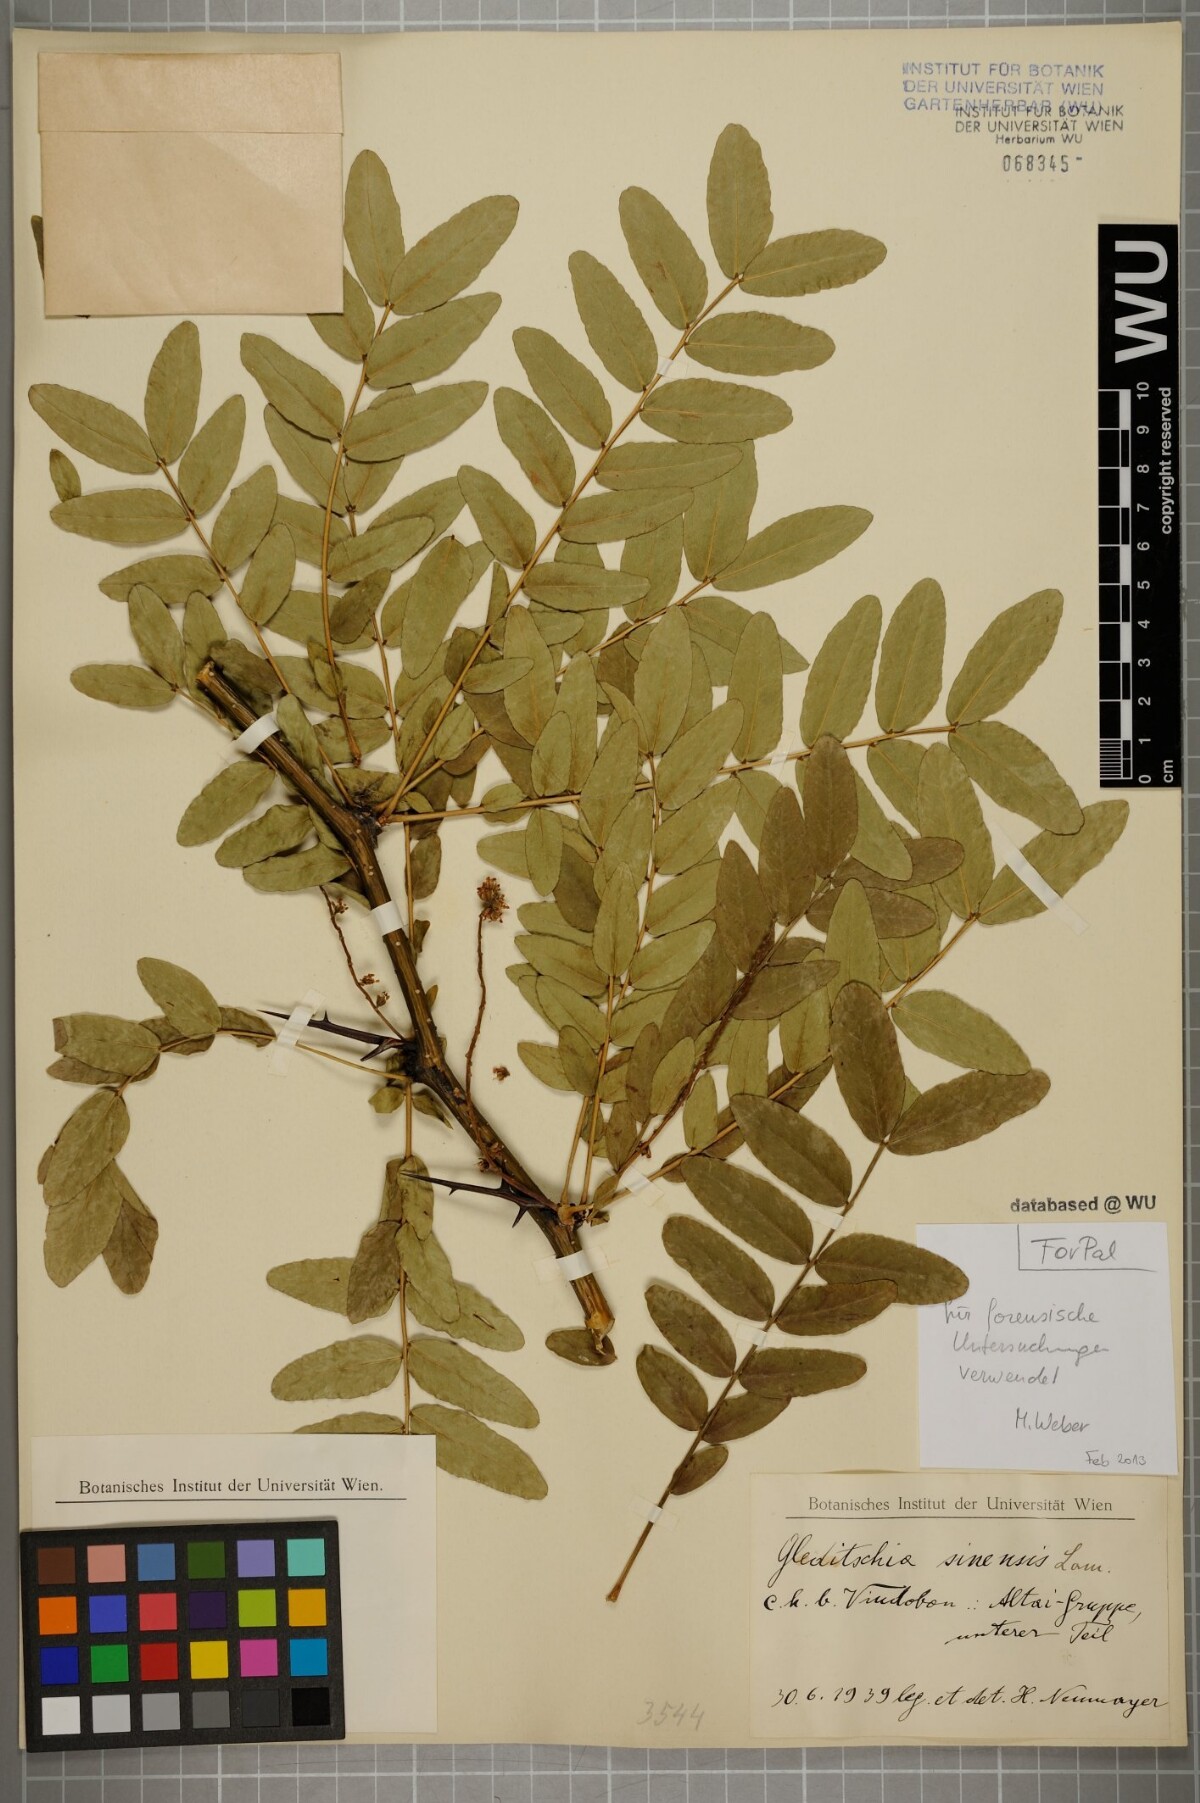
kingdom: Plantae
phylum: Tracheophyta
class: Magnoliopsida
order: Fabales
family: Fabaceae
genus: Gleditsia
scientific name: Gleditsia sinensis
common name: Chinese honey-locust
